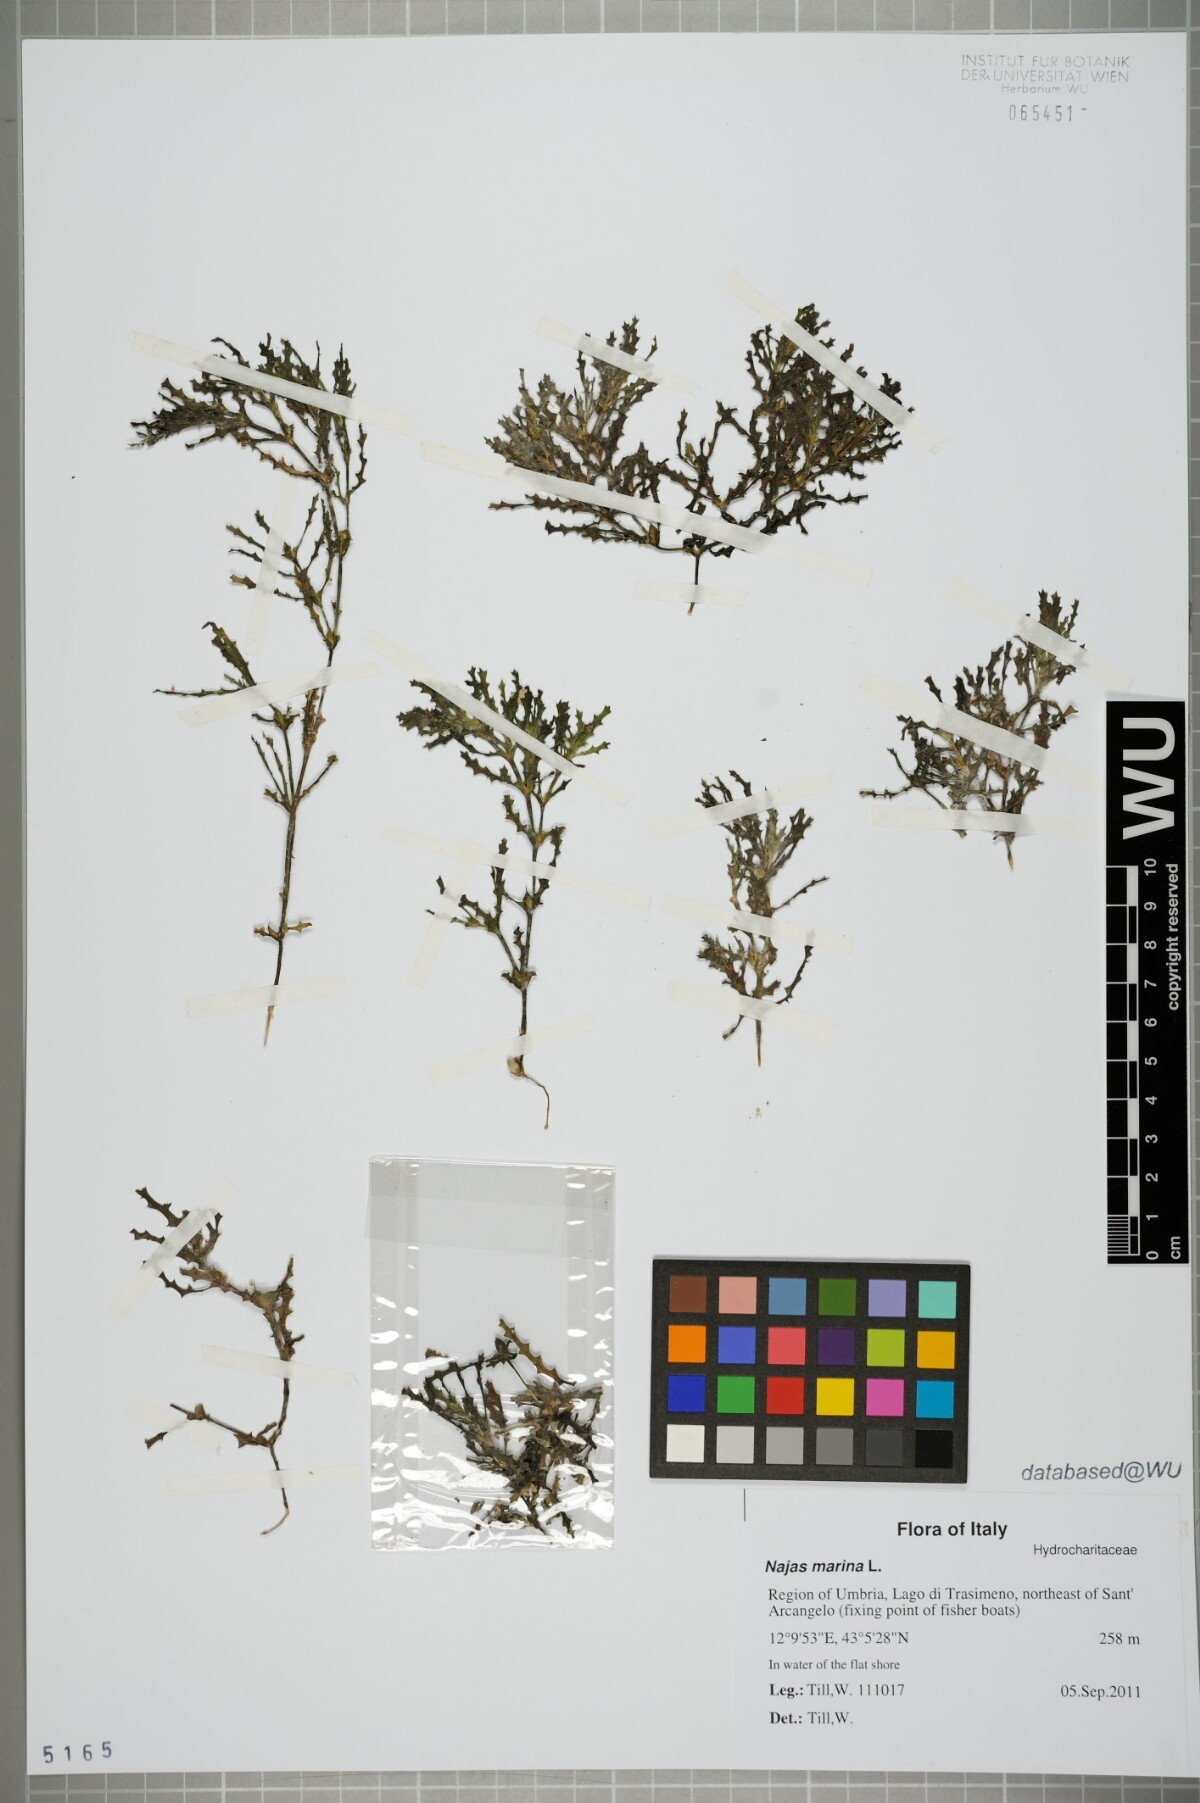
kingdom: Plantae
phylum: Tracheophyta
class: Liliopsida
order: Alismatales
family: Hydrocharitaceae
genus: Najas
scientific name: Najas marina
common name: Holly-leaved naiad
